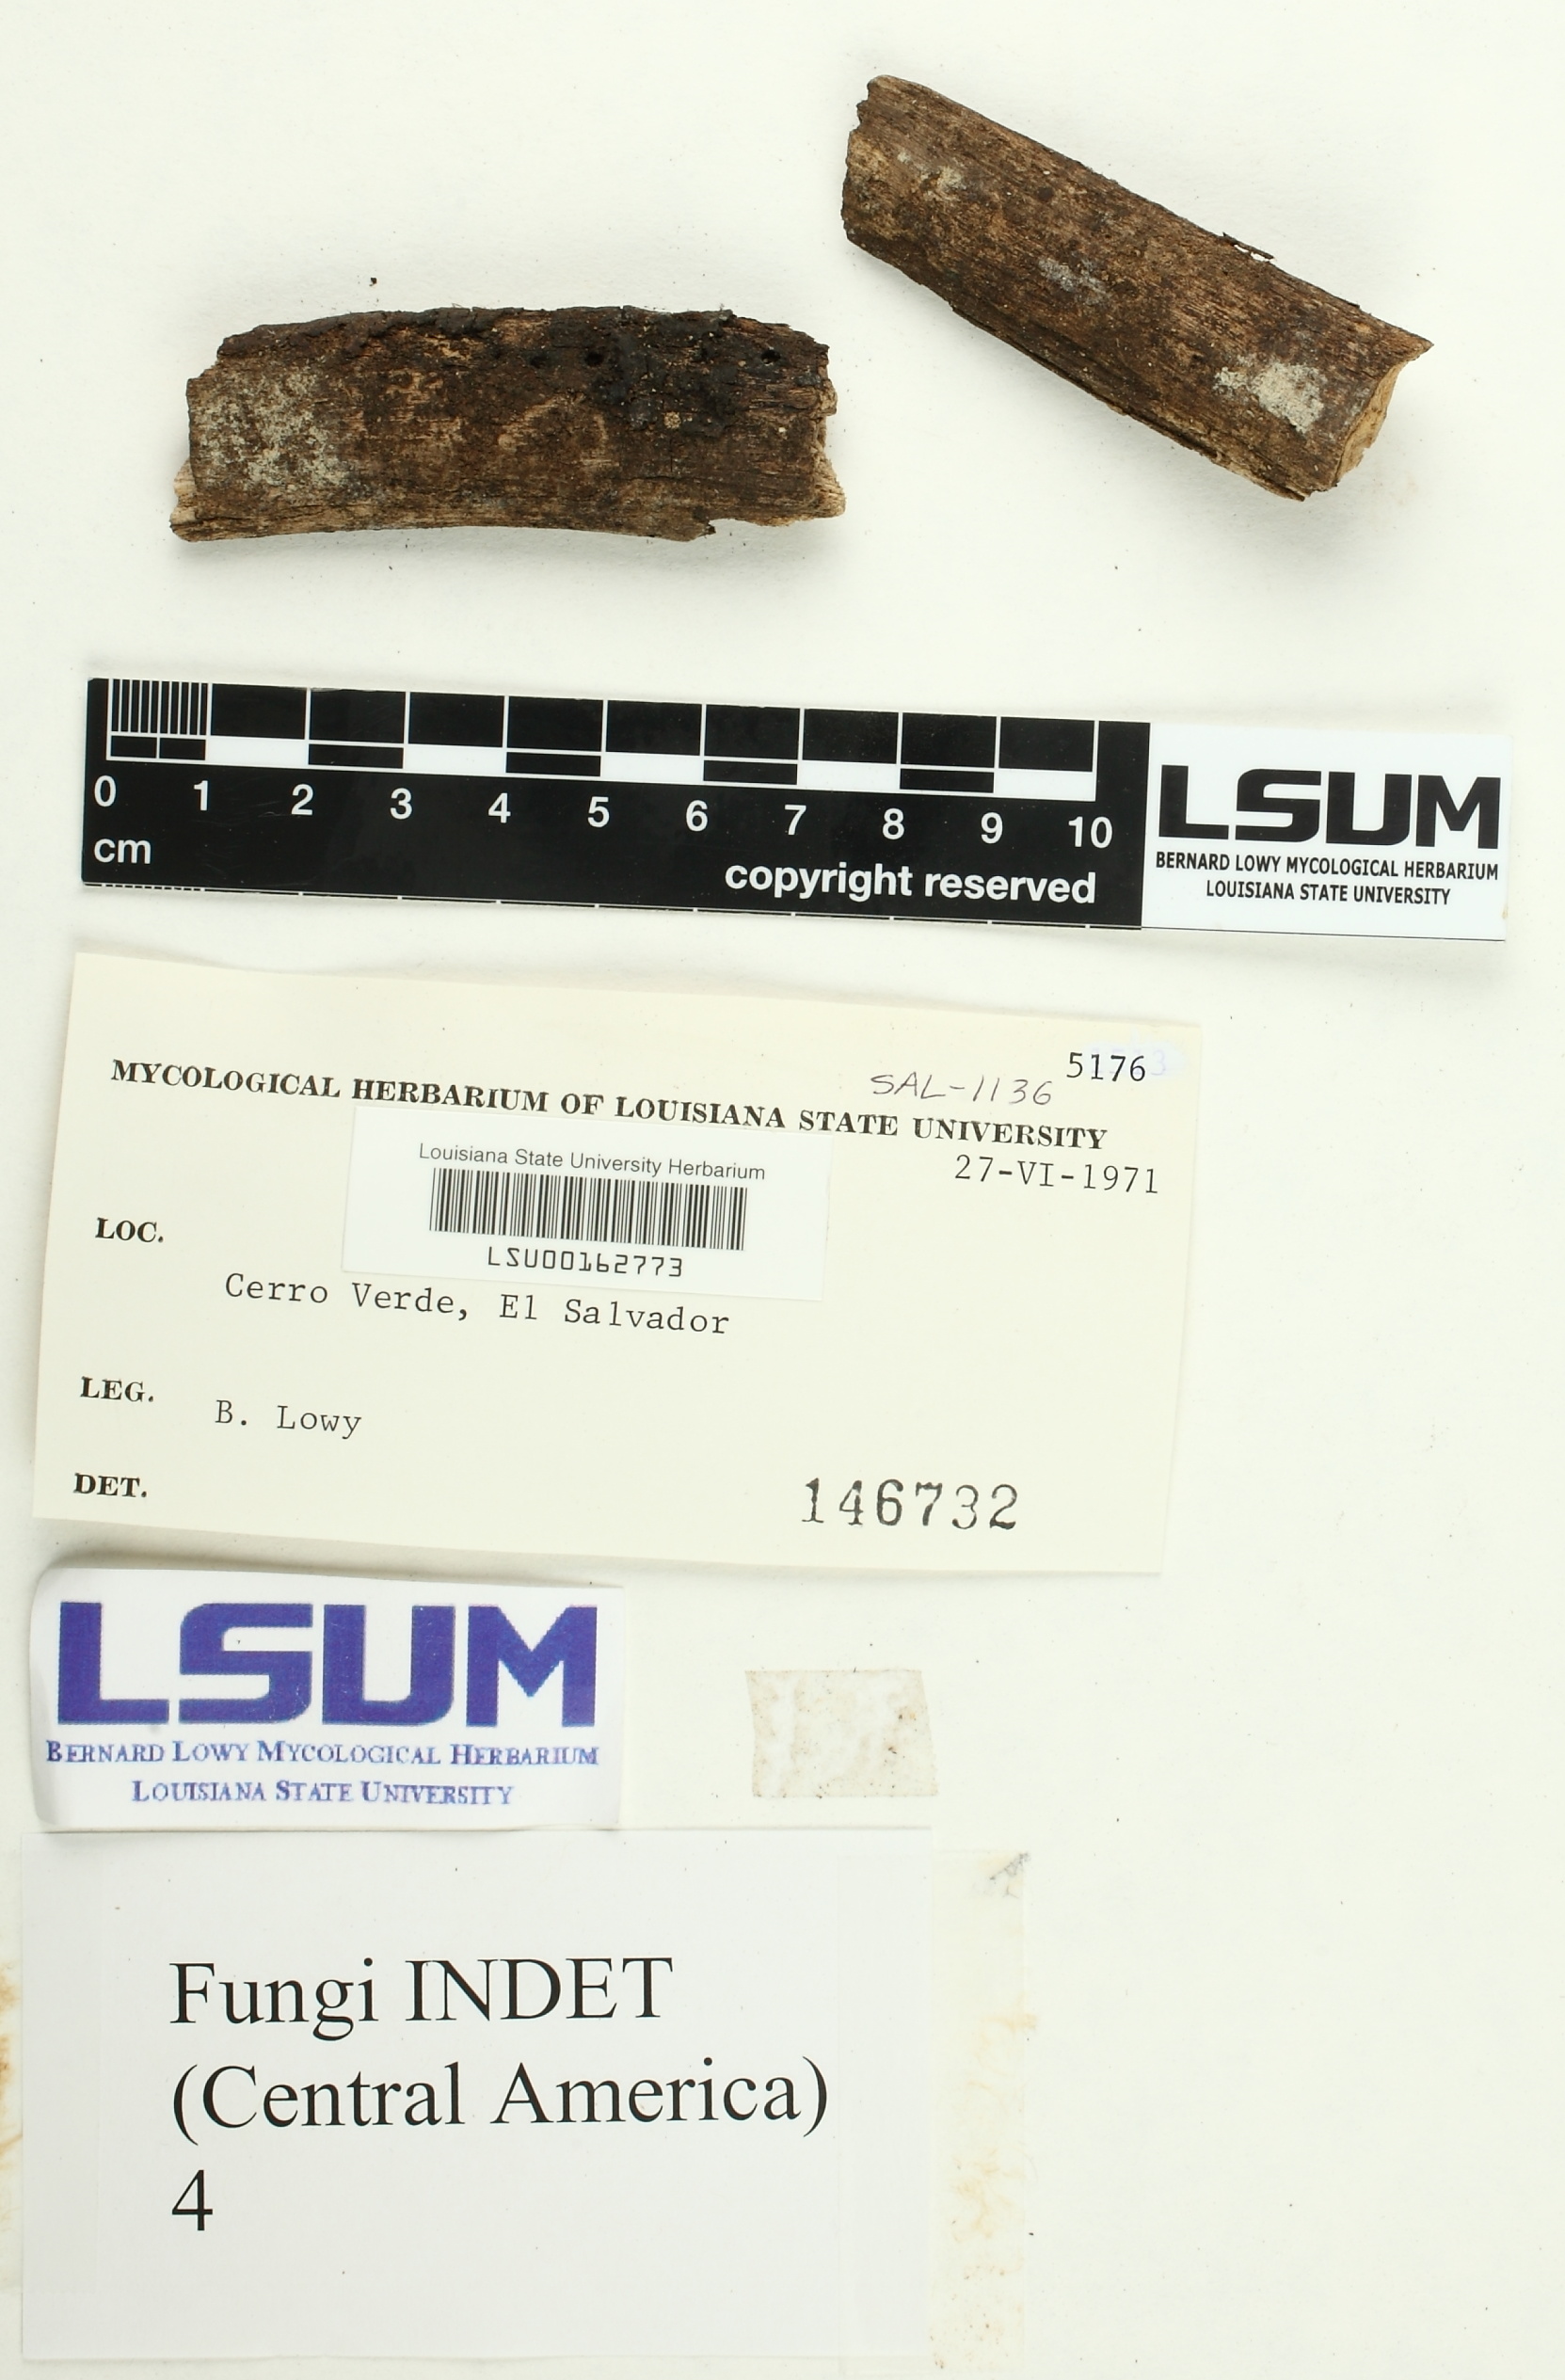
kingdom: Fungi
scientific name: Fungi
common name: Fungi
